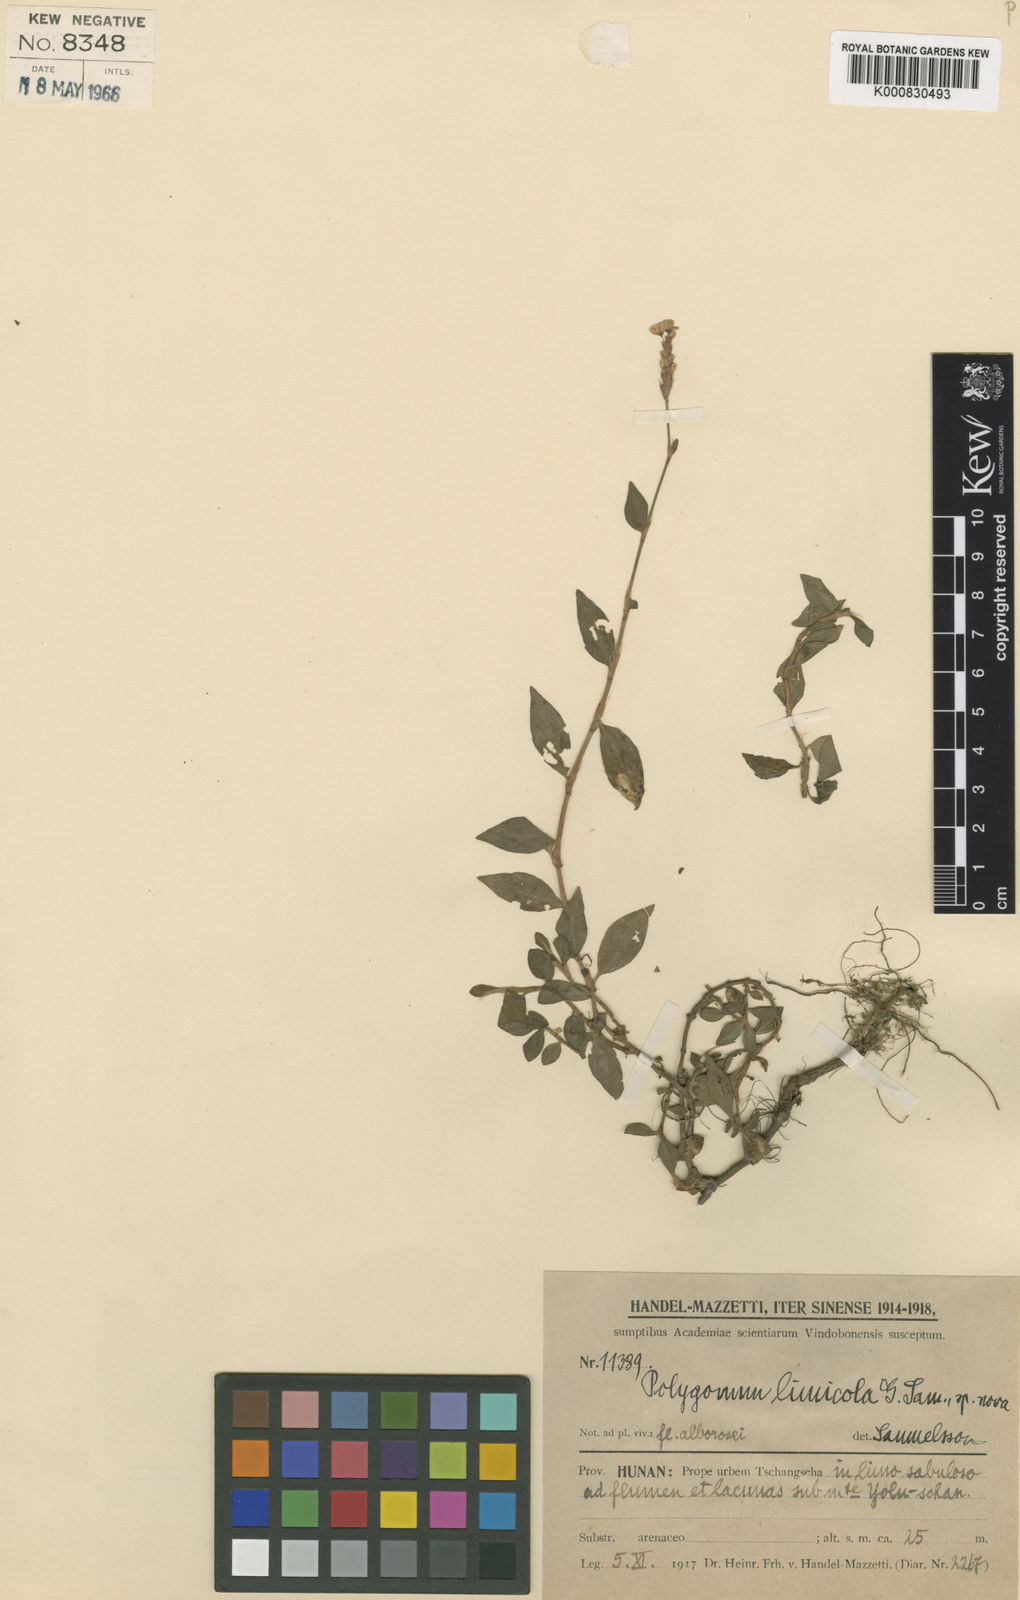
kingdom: Plantae
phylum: Tracheophyta
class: Magnoliopsida
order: Caryophyllales
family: Polygonaceae
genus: Polygonum
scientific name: Polygonum
